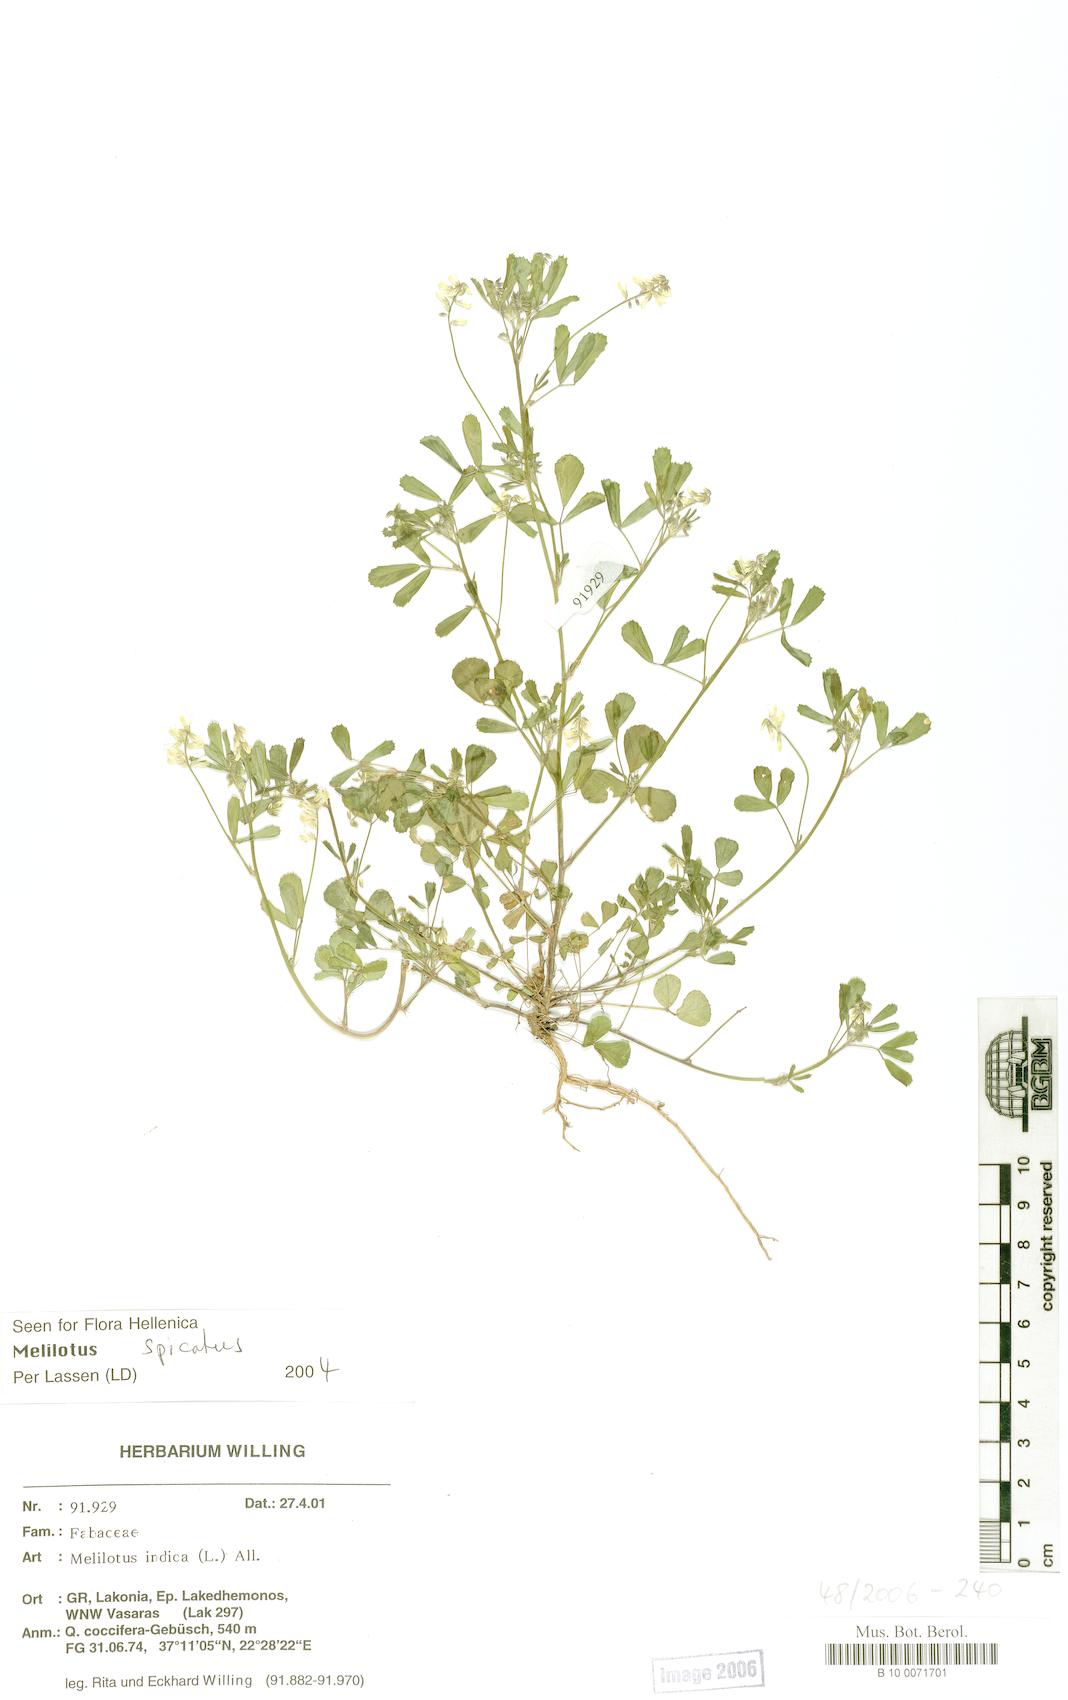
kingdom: Plantae
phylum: Tracheophyta
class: Magnoliopsida
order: Fabales
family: Fabaceae
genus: Melilotus
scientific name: Melilotus indicus
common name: Small melilot
